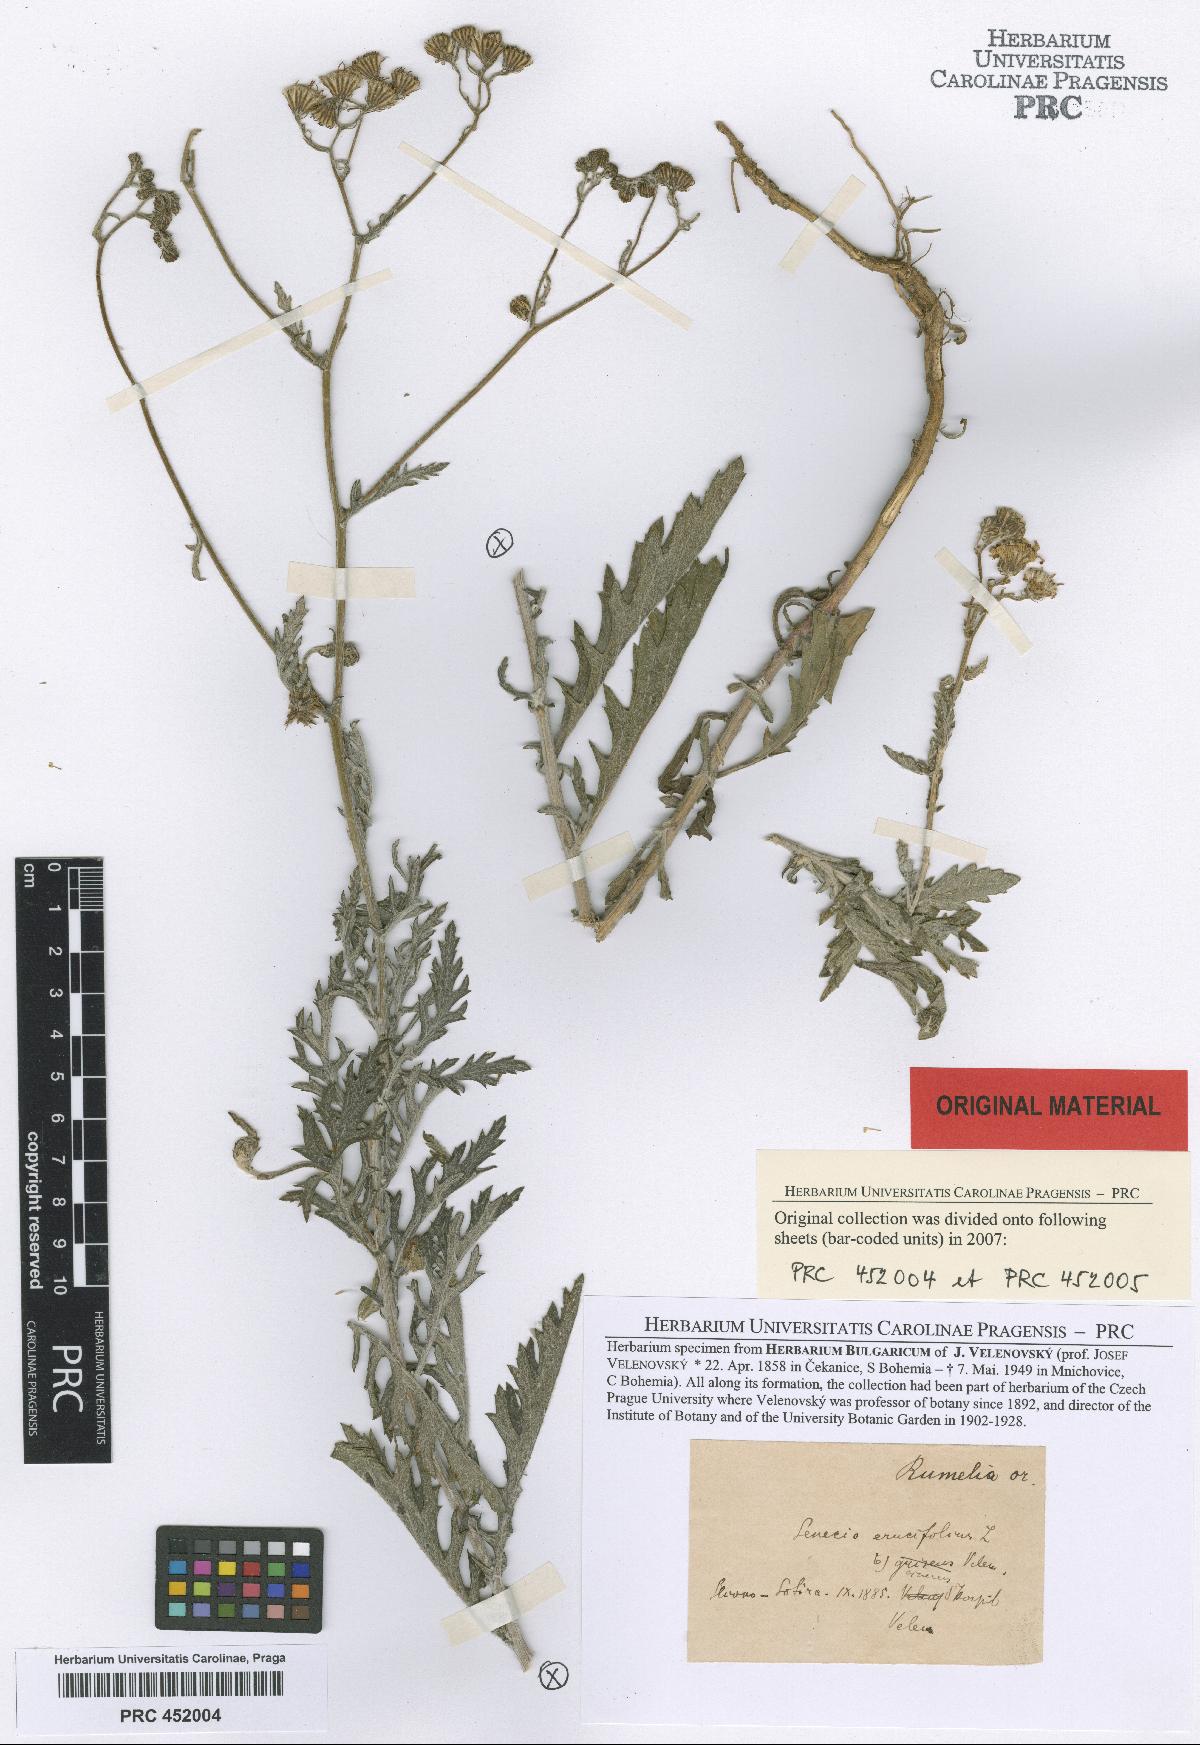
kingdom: Plantae
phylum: Tracheophyta
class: Magnoliopsida
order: Asterales
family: Asteraceae
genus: Jacobaea
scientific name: Jacobaea erucifolia
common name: Hoary ragwort
